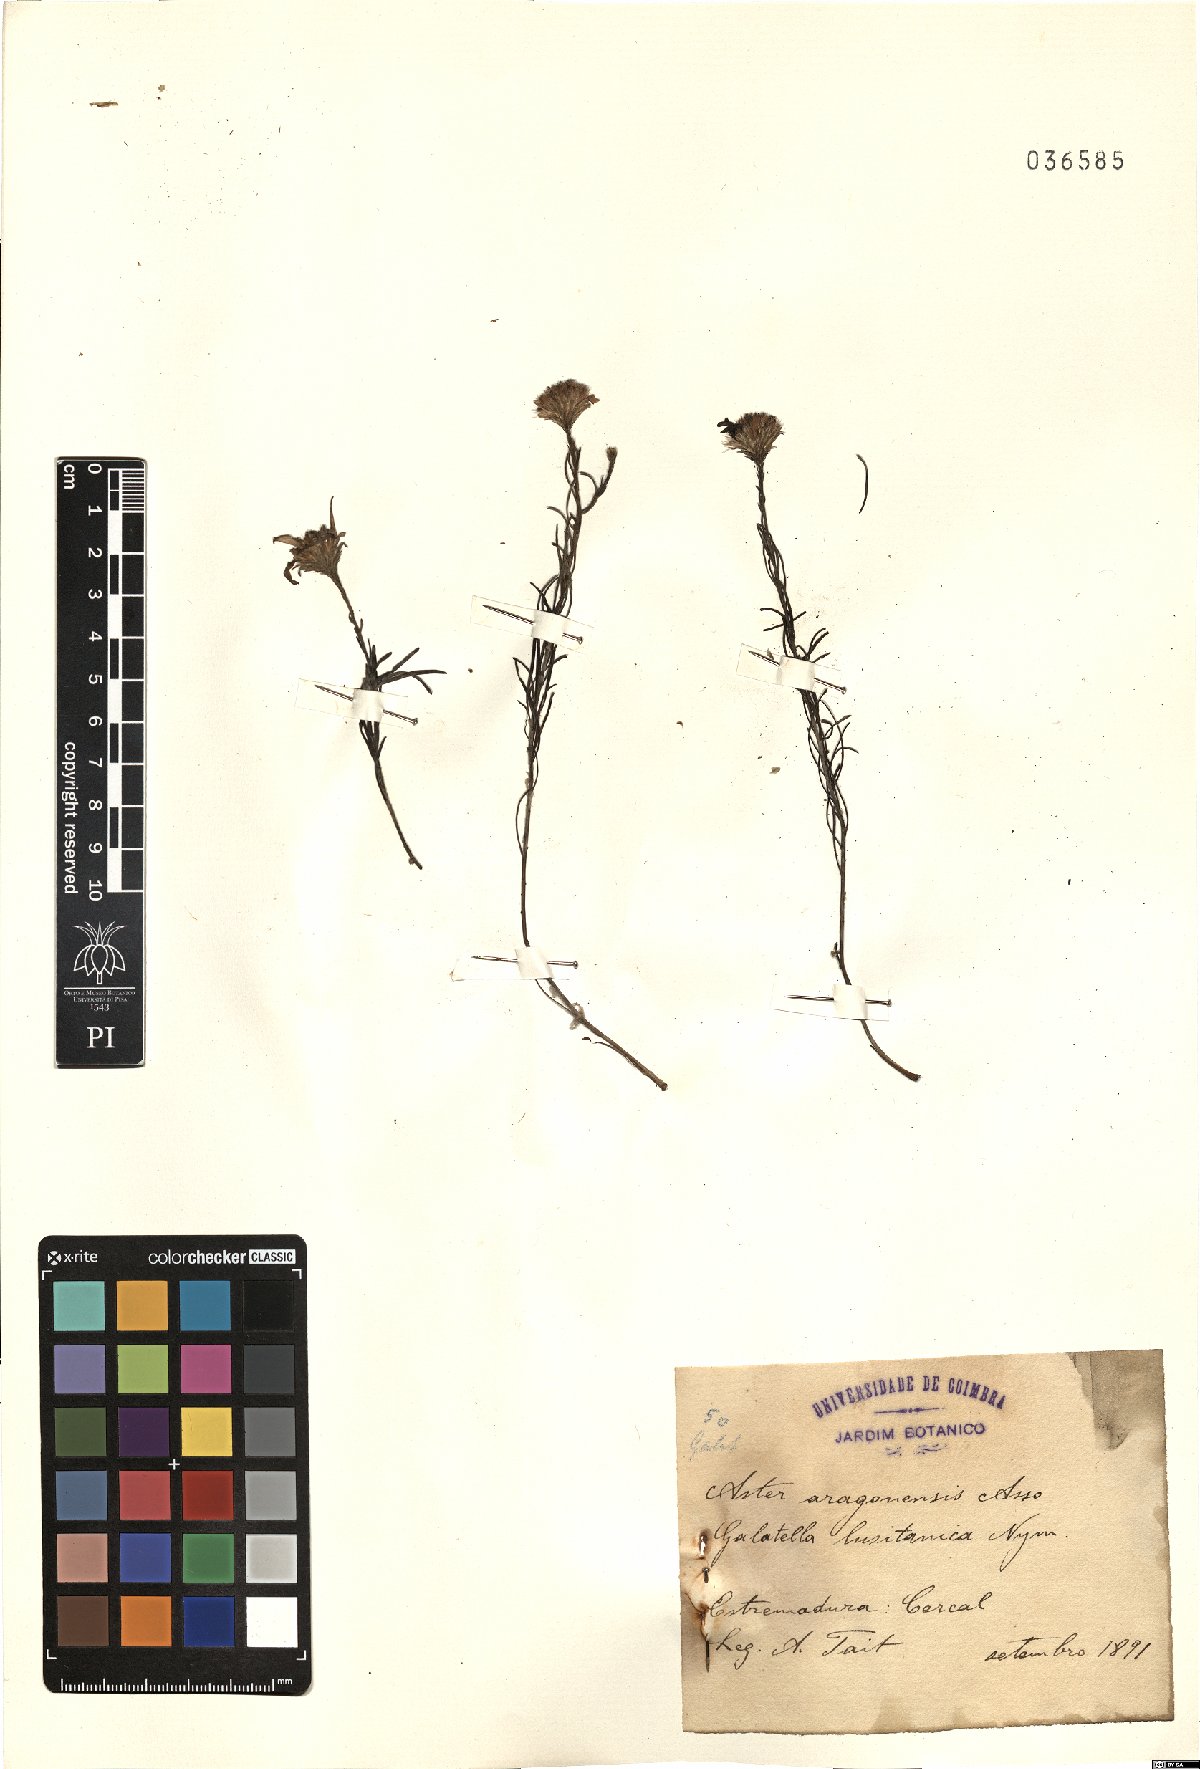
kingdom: Plantae
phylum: Tracheophyta
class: Magnoliopsida
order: Asterales
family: Asteraceae
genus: Galatella
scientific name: Galatella aragonensis
